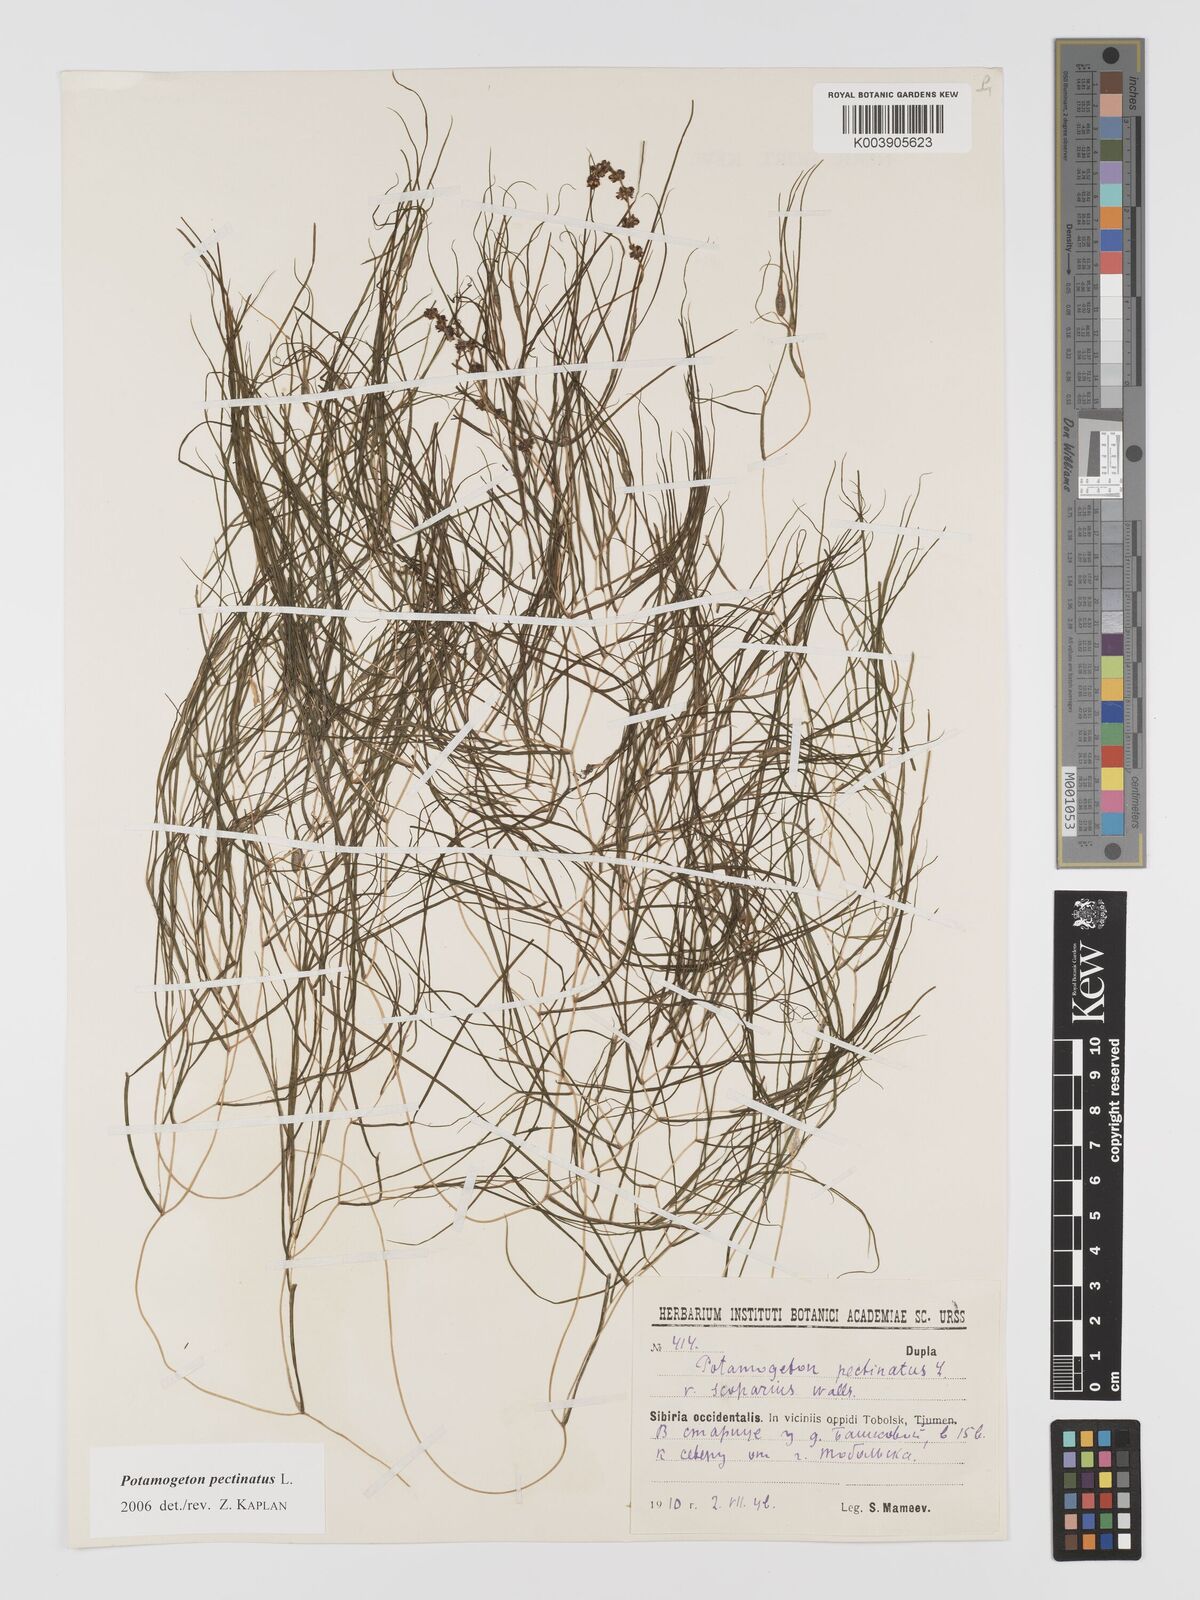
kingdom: Plantae
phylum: Tracheophyta
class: Liliopsida
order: Alismatales
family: Potamogetonaceae
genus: Stuckenia
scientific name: Stuckenia pectinata
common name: Sago pondweed
